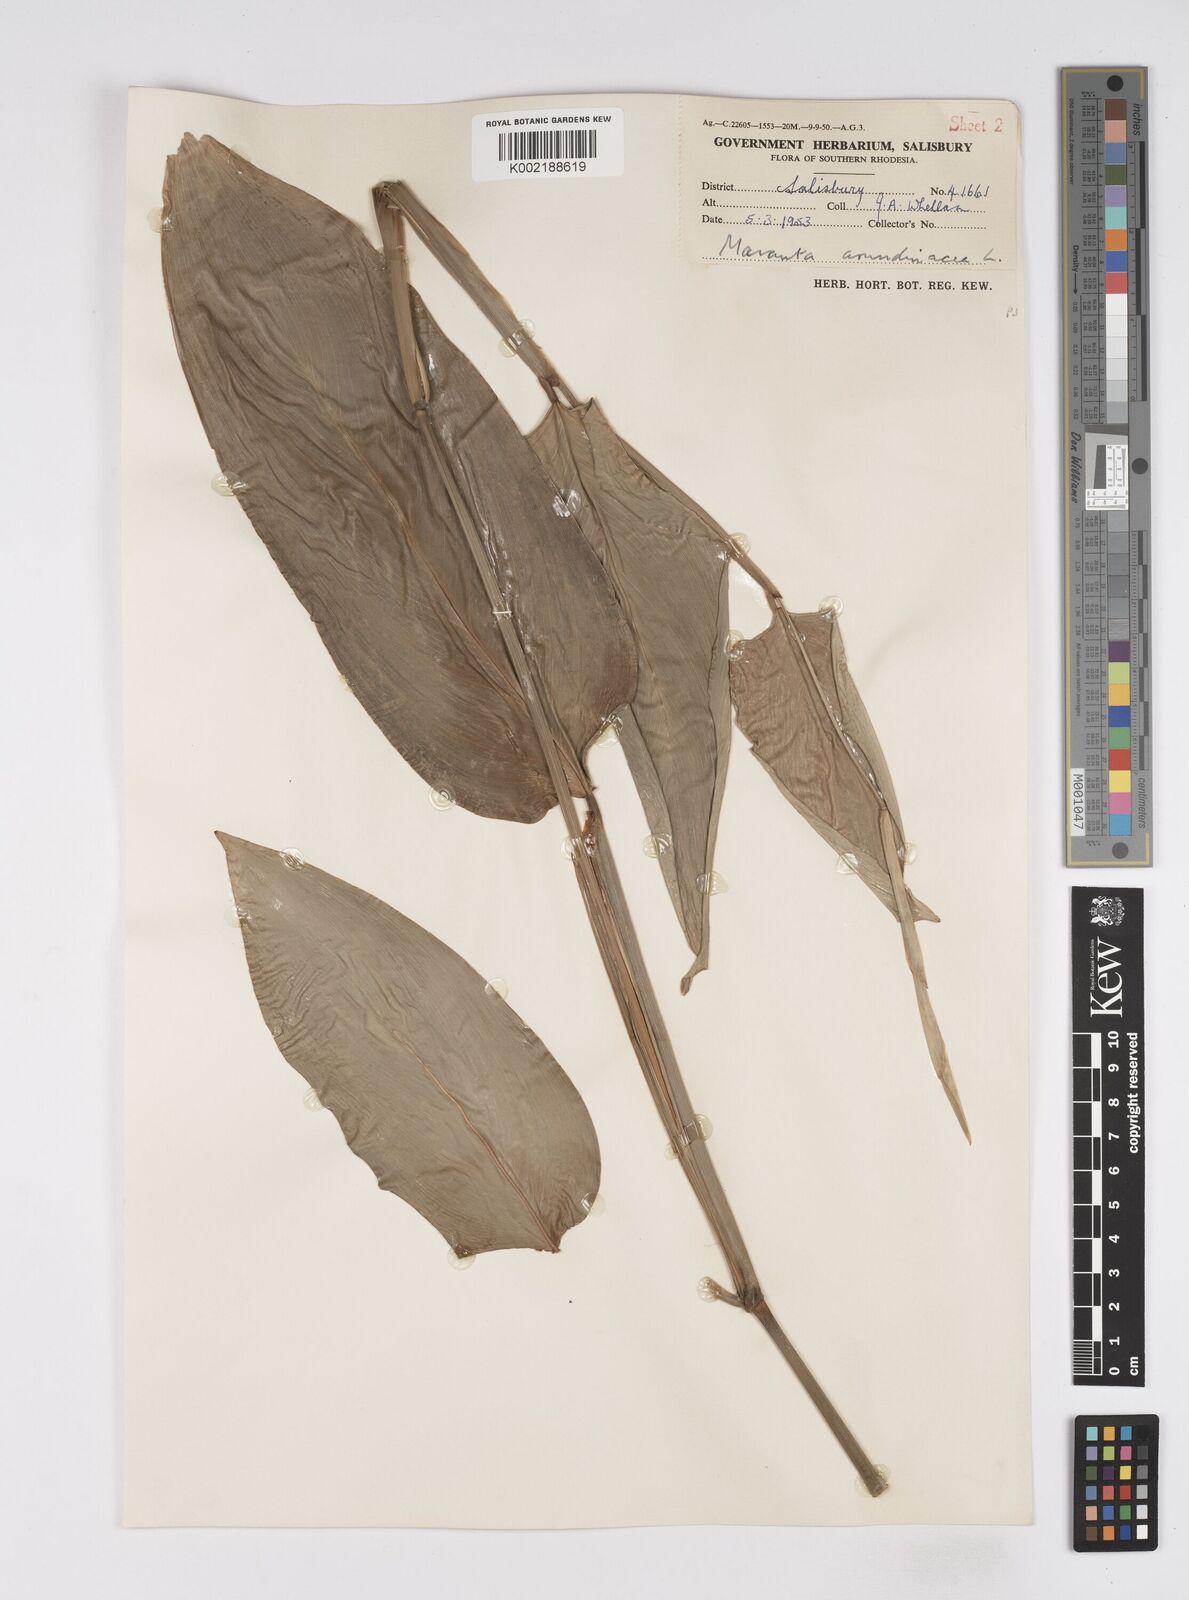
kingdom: Plantae
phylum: Tracheophyta
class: Liliopsida
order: Zingiberales
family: Marantaceae
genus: Maranta
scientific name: Maranta arundinacea
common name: Arrowroot
